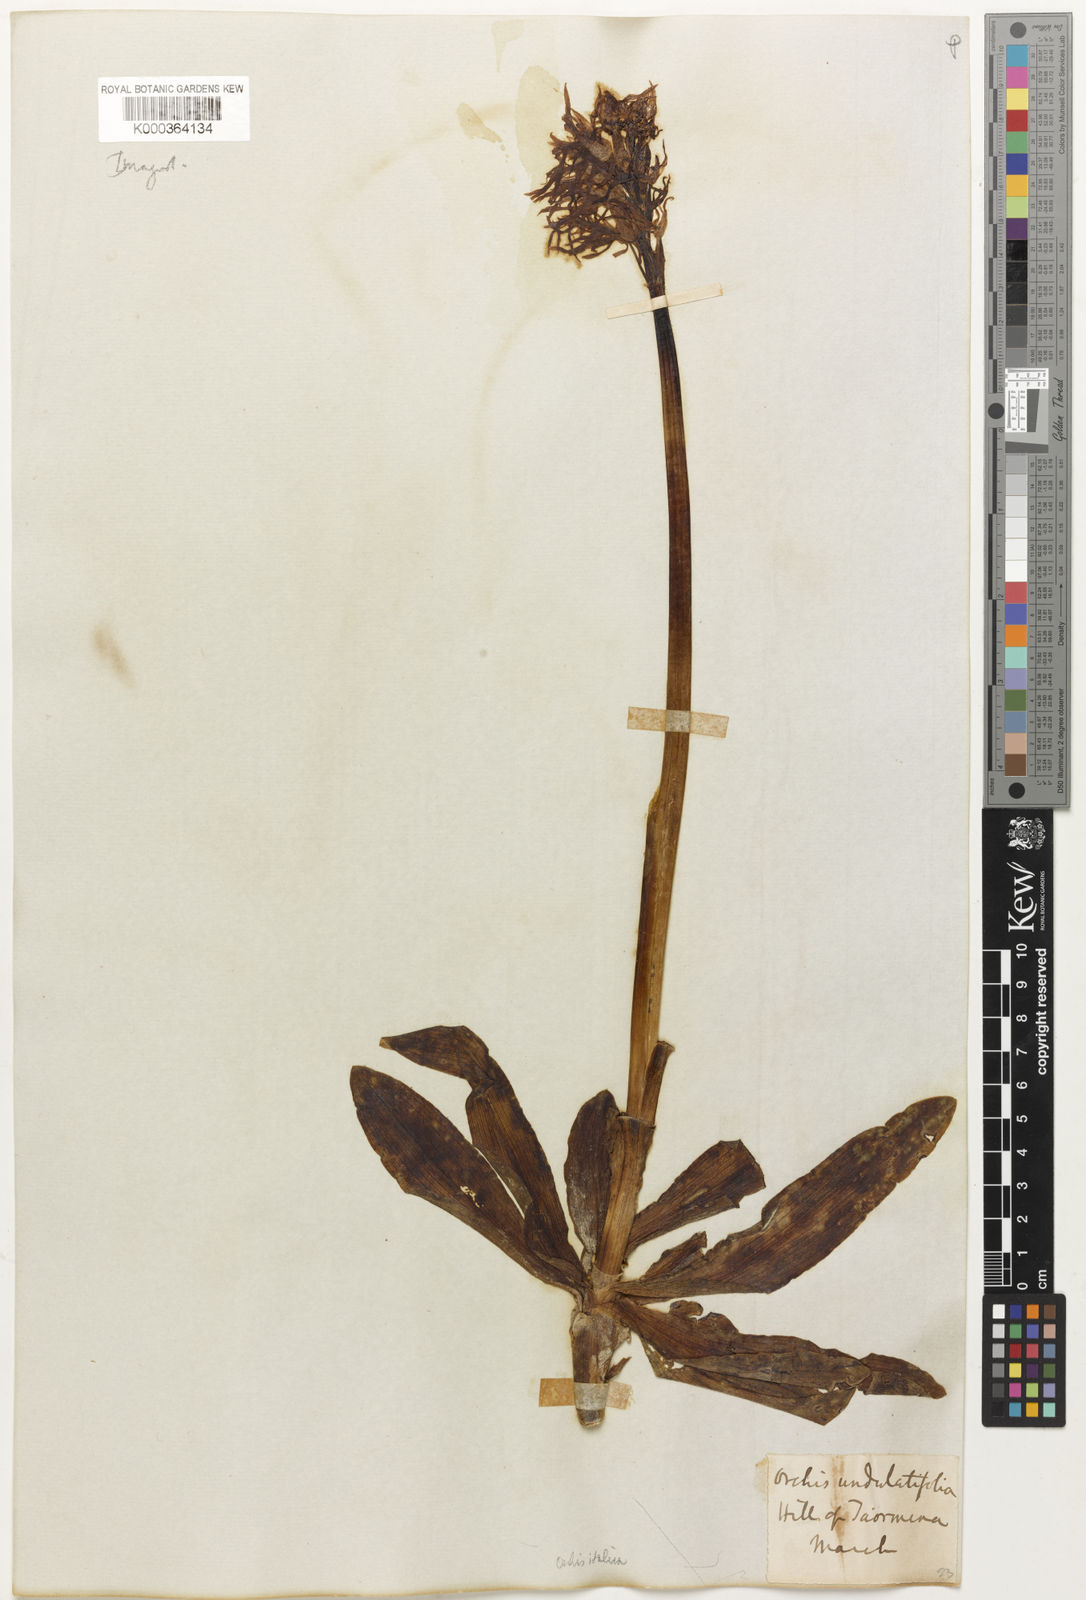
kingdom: Plantae
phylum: Tracheophyta
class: Liliopsida
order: Asparagales
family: Orchidaceae
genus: Orchis
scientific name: Orchis italica
